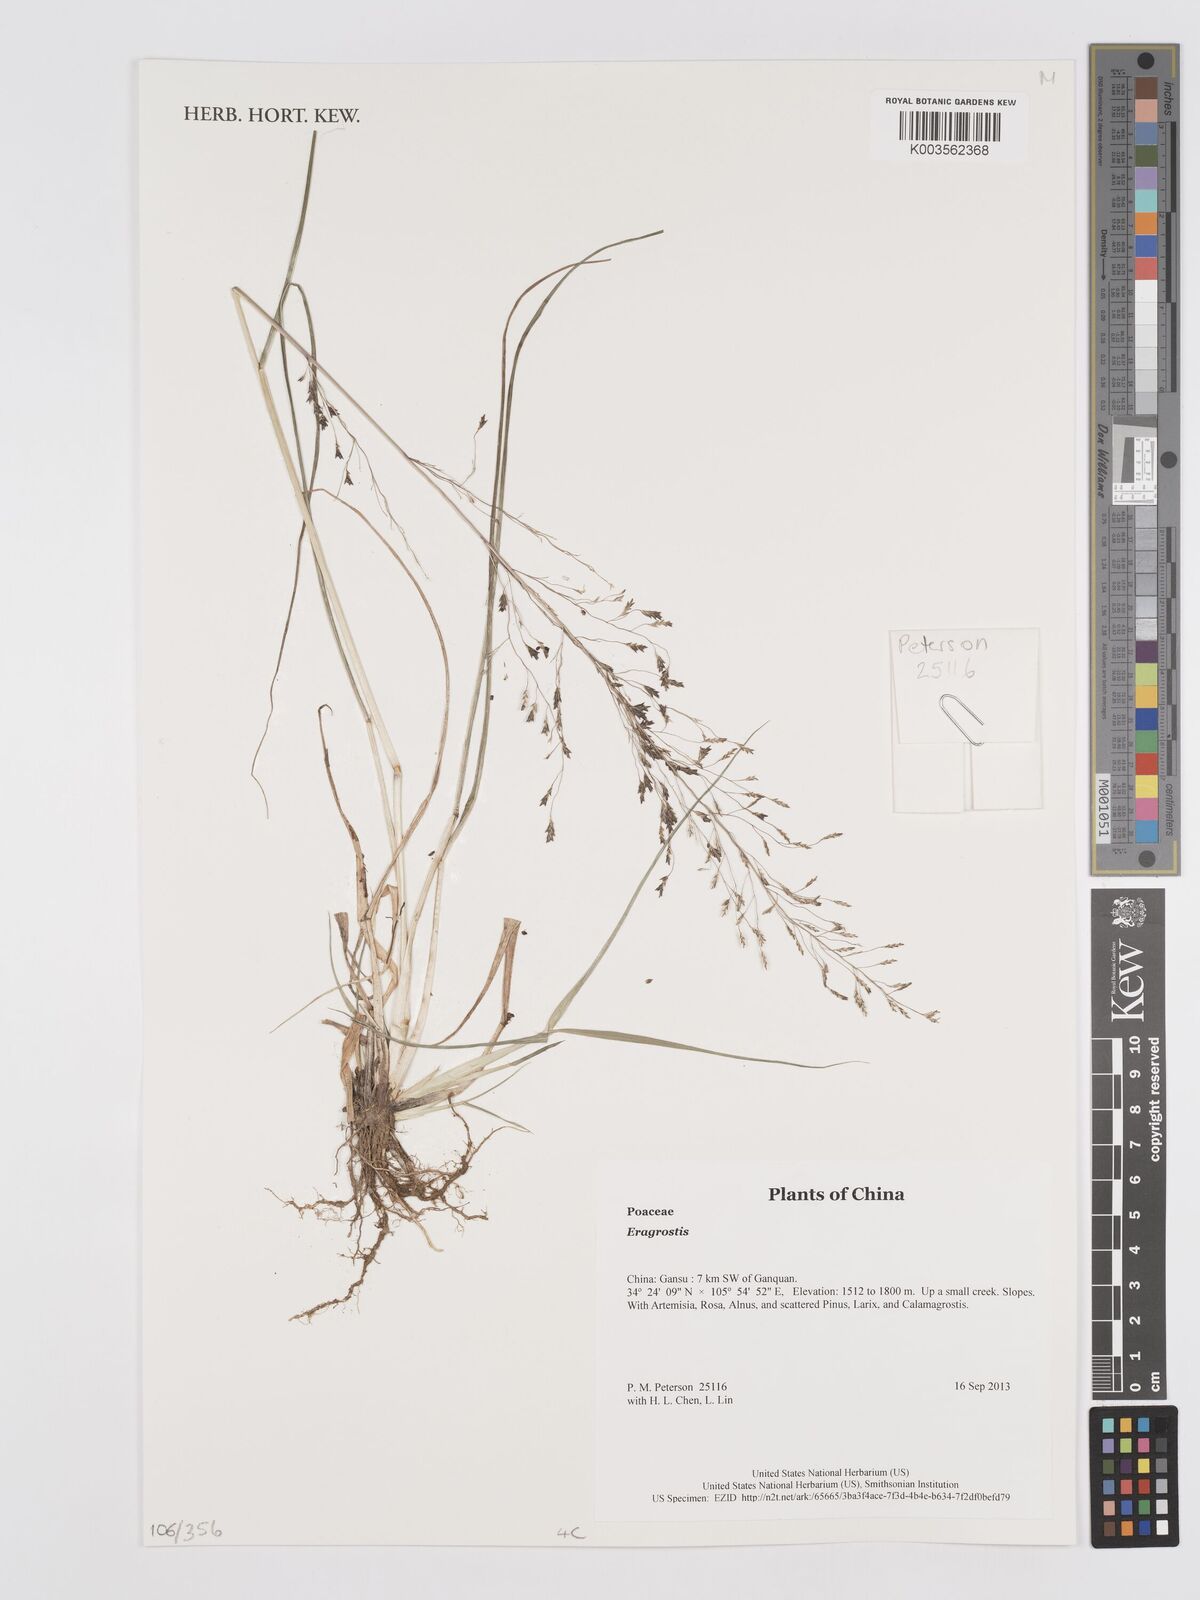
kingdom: Plantae
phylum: Tracheophyta
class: Liliopsida
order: Poales
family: Poaceae
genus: Eragrostis
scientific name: Eragrostis
